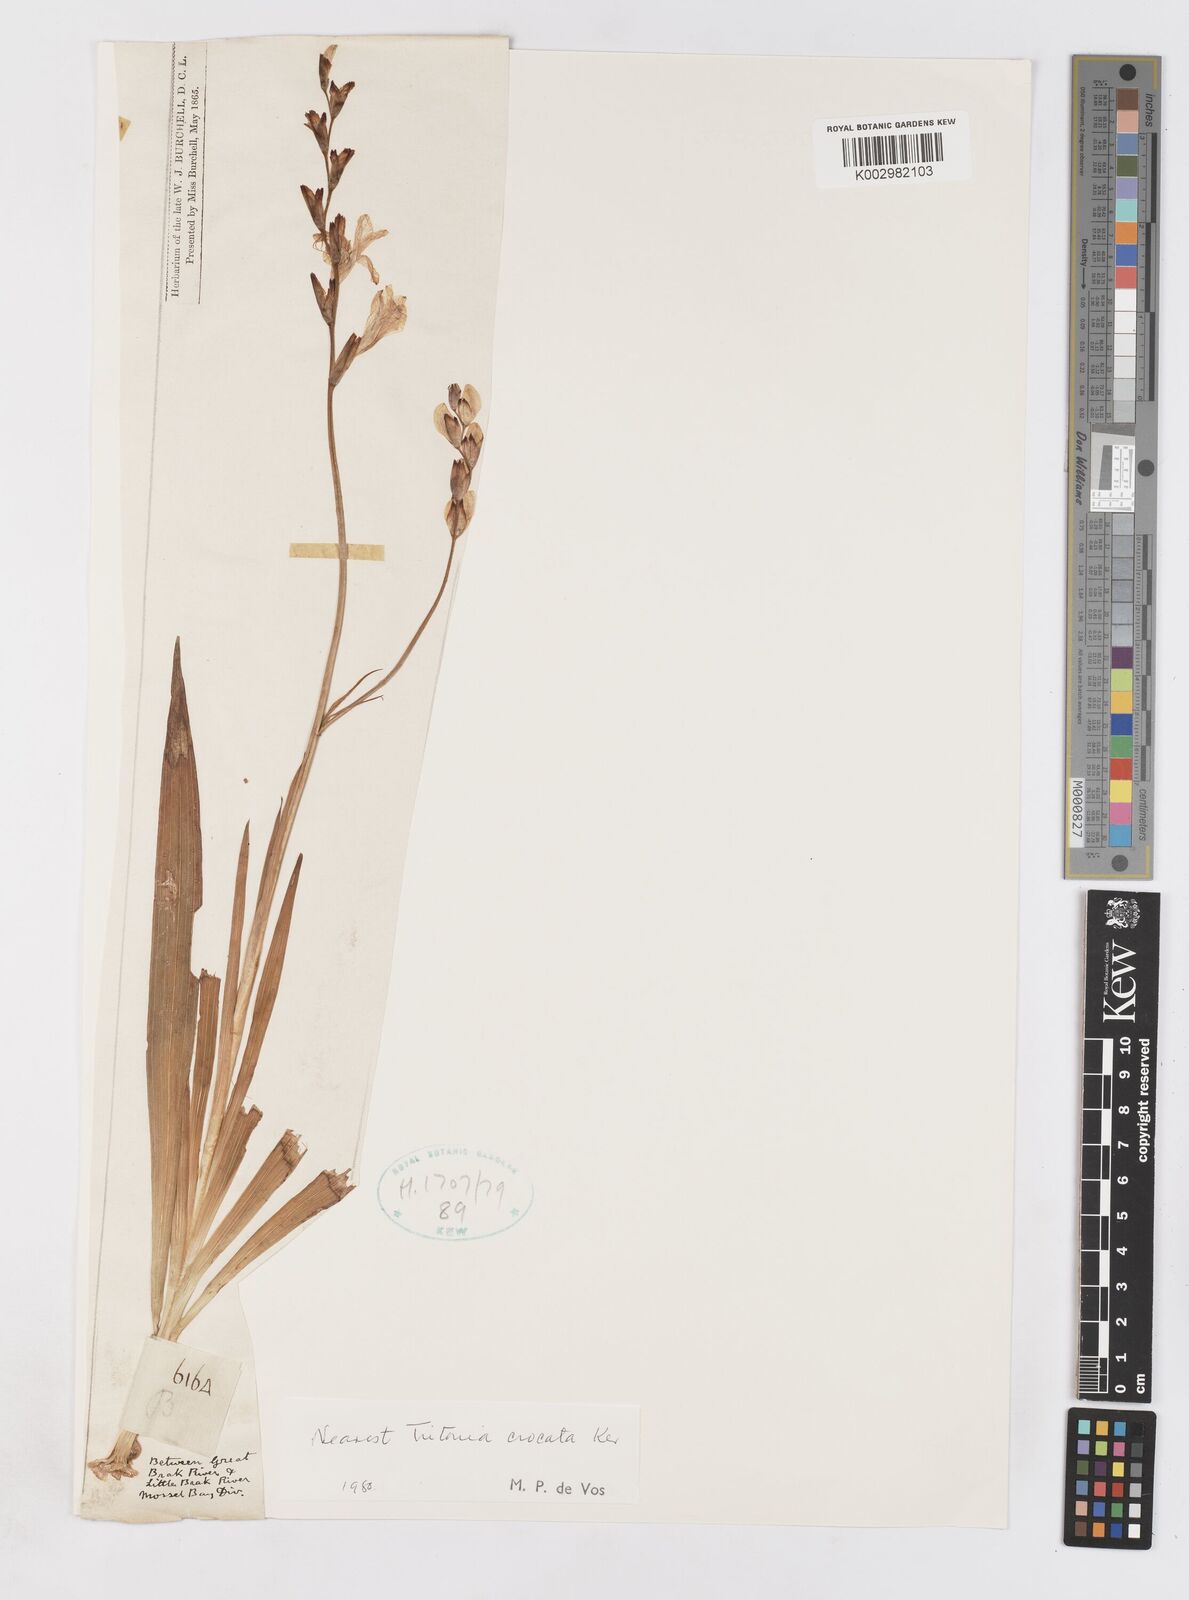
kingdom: Plantae
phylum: Tracheophyta
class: Liliopsida
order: Asparagales
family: Iridaceae
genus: Tritonia
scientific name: Tritonia crocata
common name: Flame-freesia
